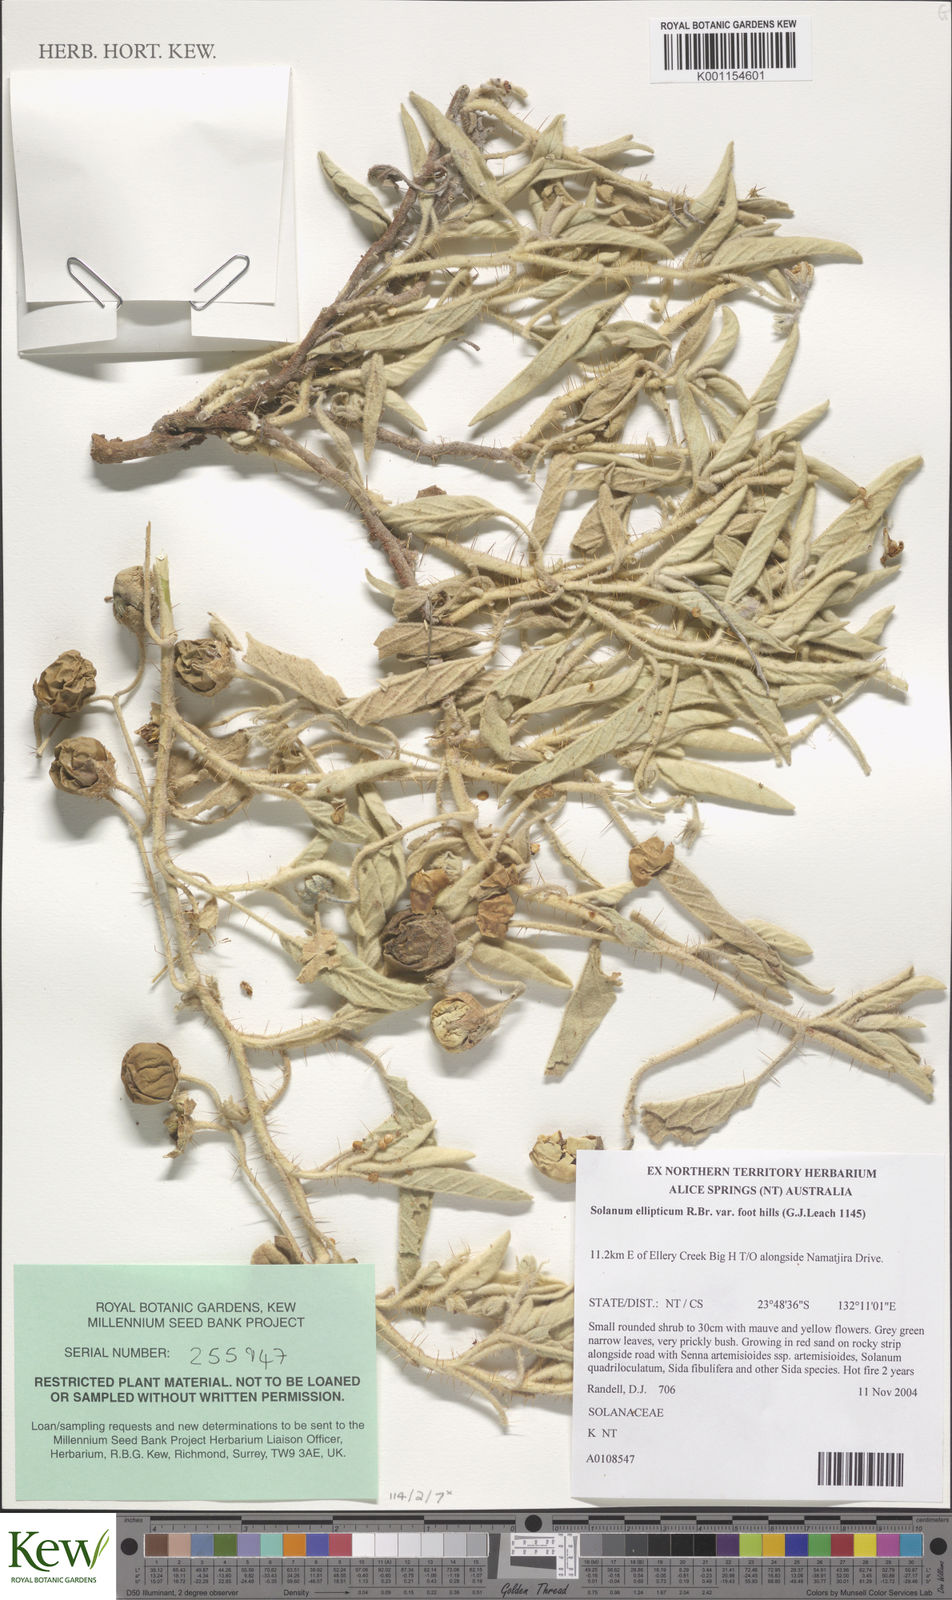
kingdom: Plantae
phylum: Tracheophyta
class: Magnoliopsida
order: Solanales
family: Solanaceae
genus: Solanum
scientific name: Solanum ellipticum
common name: Potato-bush
